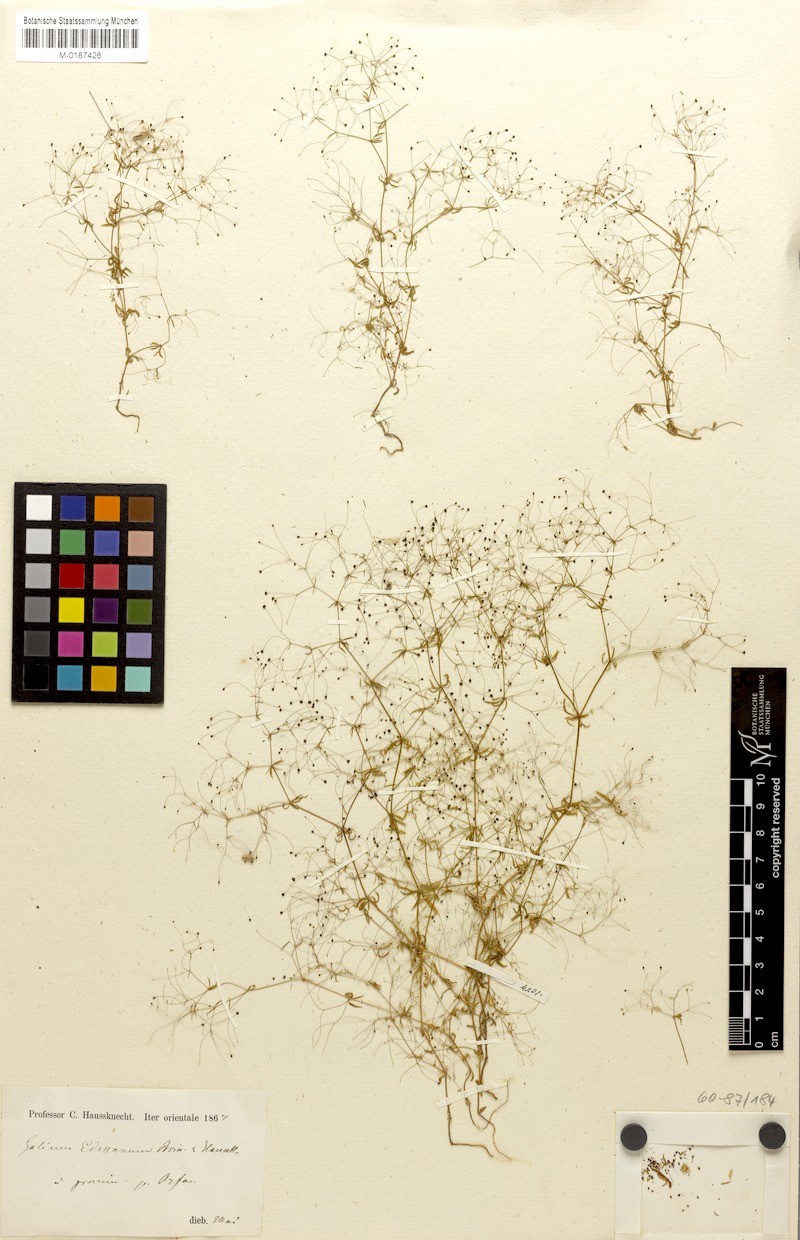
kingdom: Plantae
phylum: Tracheophyta
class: Magnoliopsida
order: Gentianales
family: Rubiaceae
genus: Galium
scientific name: Galium
